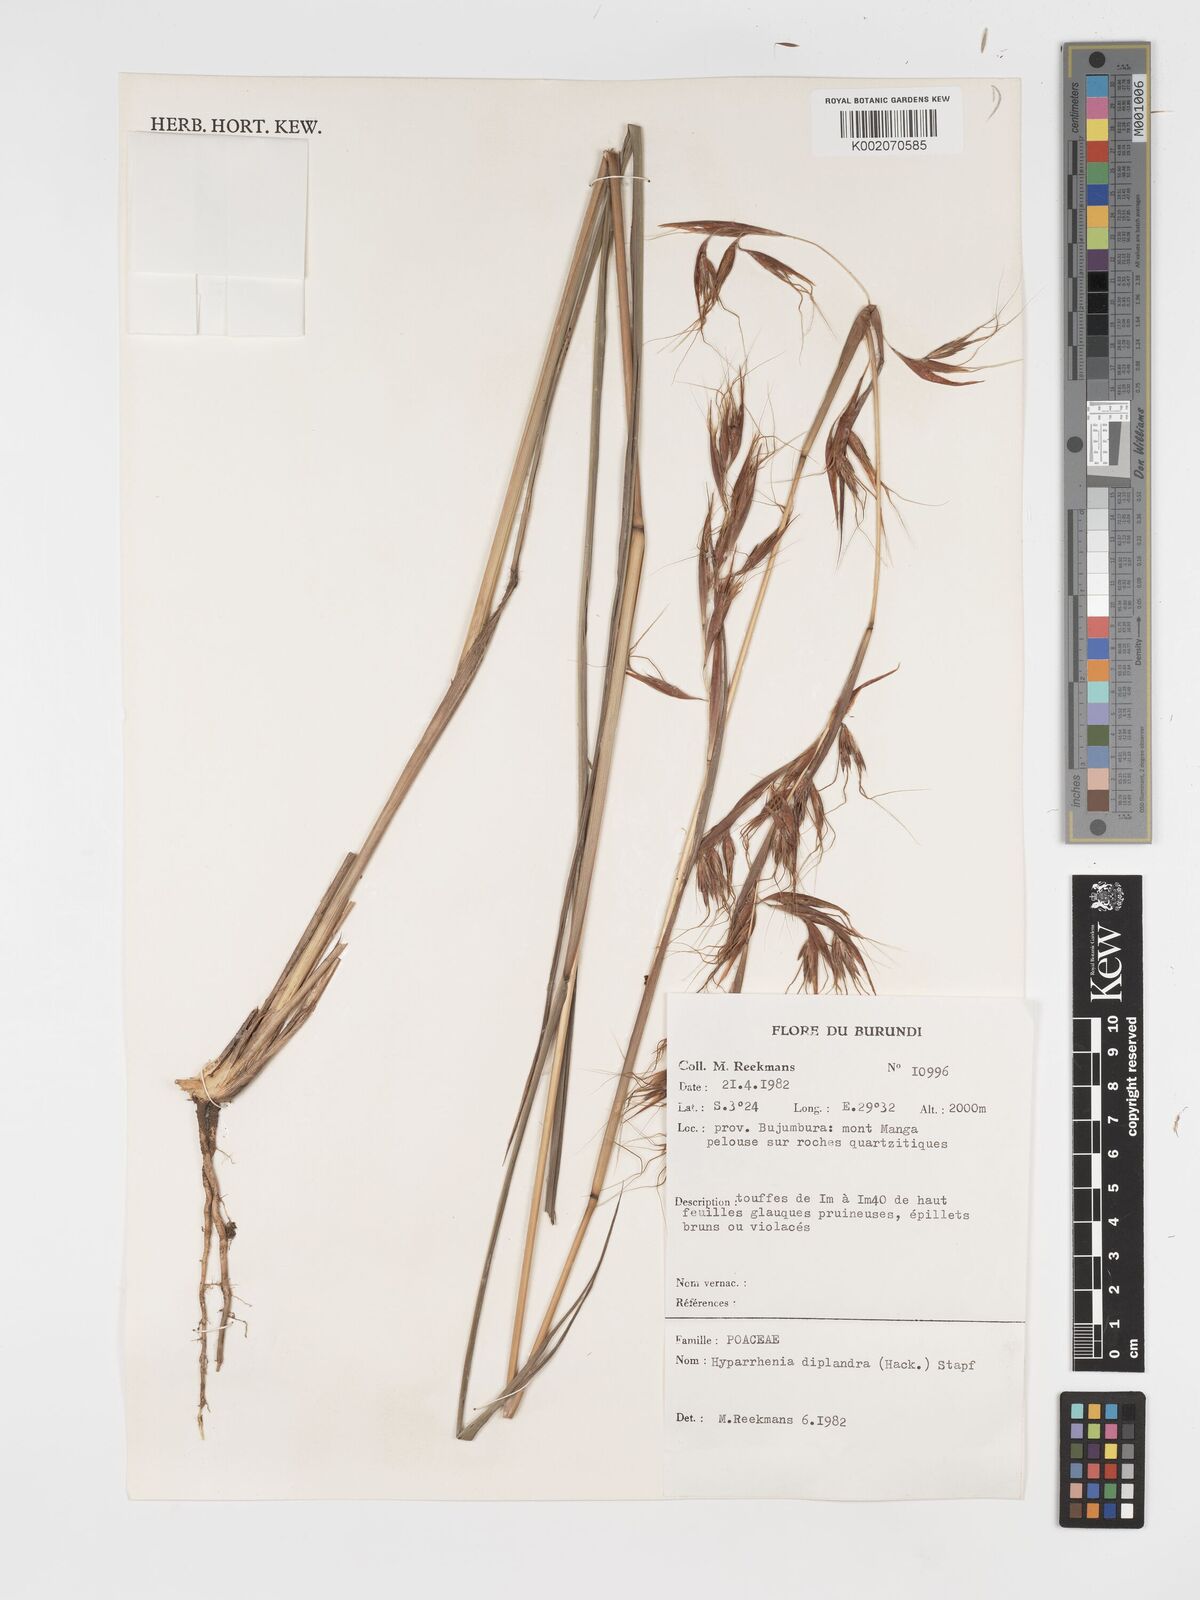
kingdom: Plantae
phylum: Tracheophyta
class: Liliopsida
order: Poales
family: Poaceae
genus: Hyparrhenia
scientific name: Hyparrhenia diplandra
